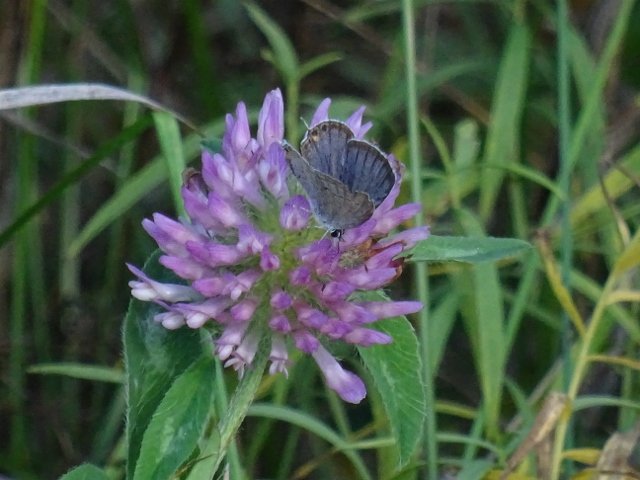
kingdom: Animalia
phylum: Arthropoda
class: Insecta
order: Lepidoptera
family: Lycaenidae
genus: Elkalyce
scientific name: Elkalyce comyntas
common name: Eastern Tailed-Blue
